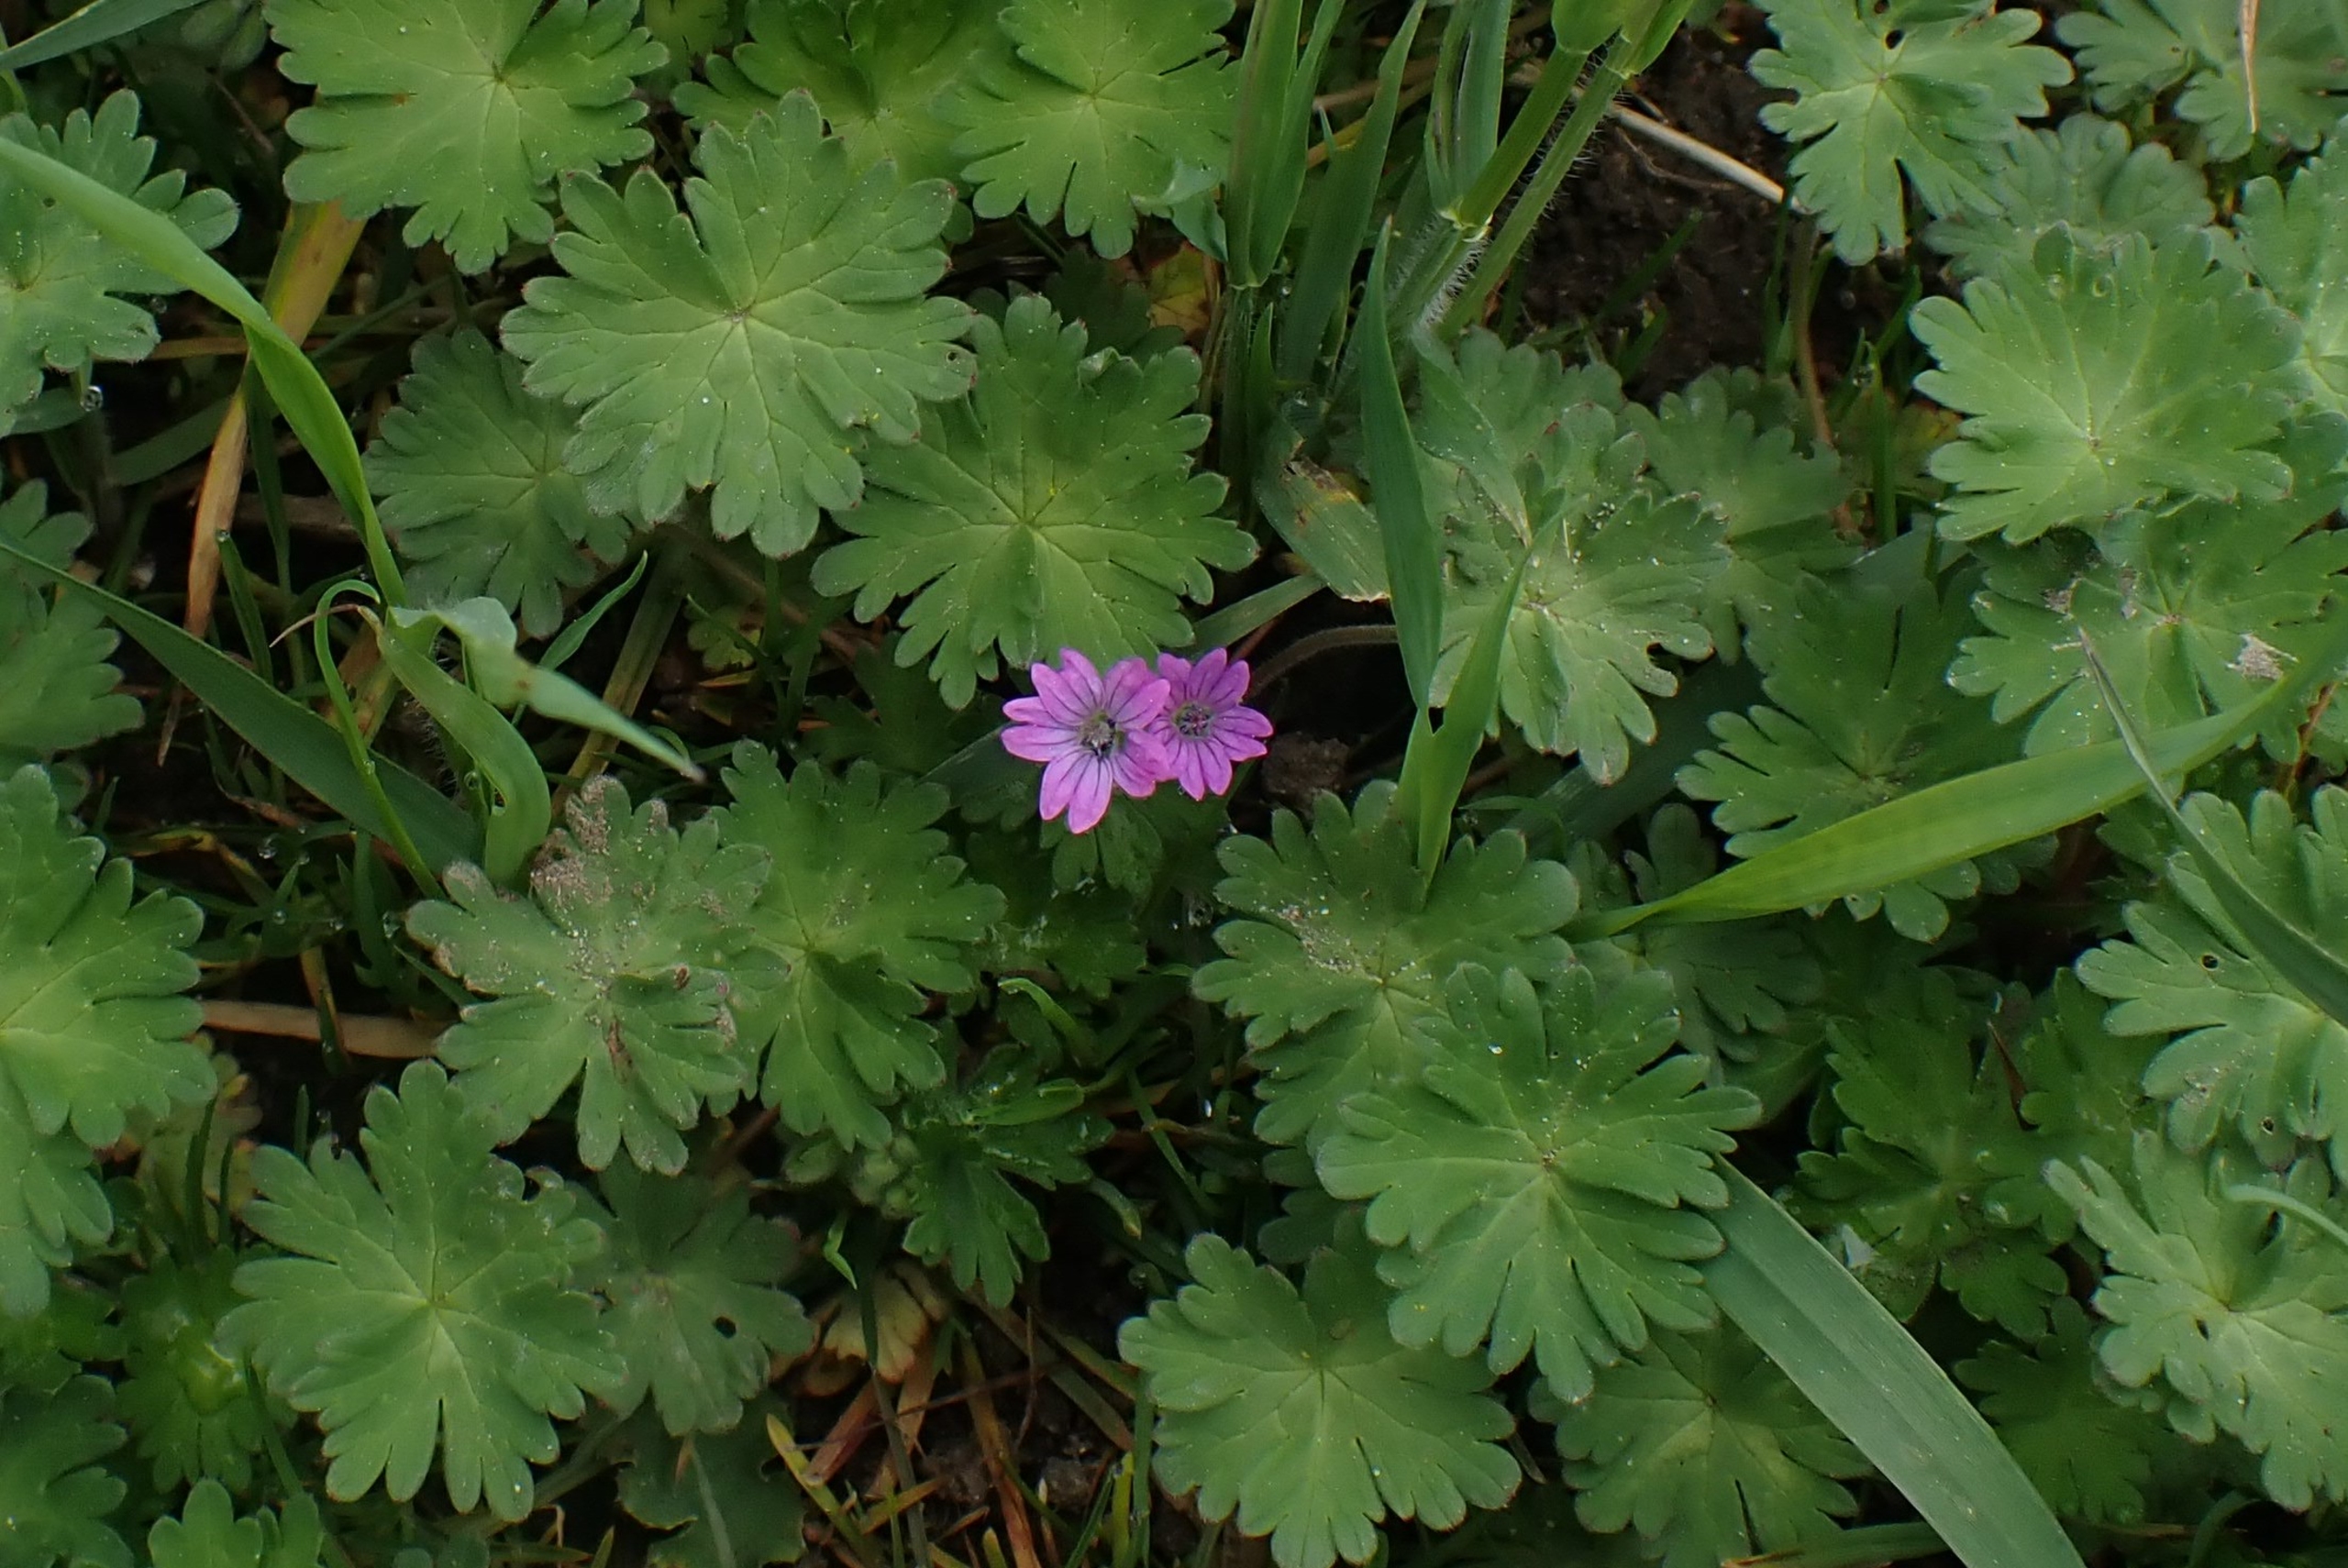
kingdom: Plantae
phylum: Tracheophyta
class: Magnoliopsida
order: Geraniales
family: Geraniaceae
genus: Geranium
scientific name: Geranium molle
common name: Blød storkenæb
